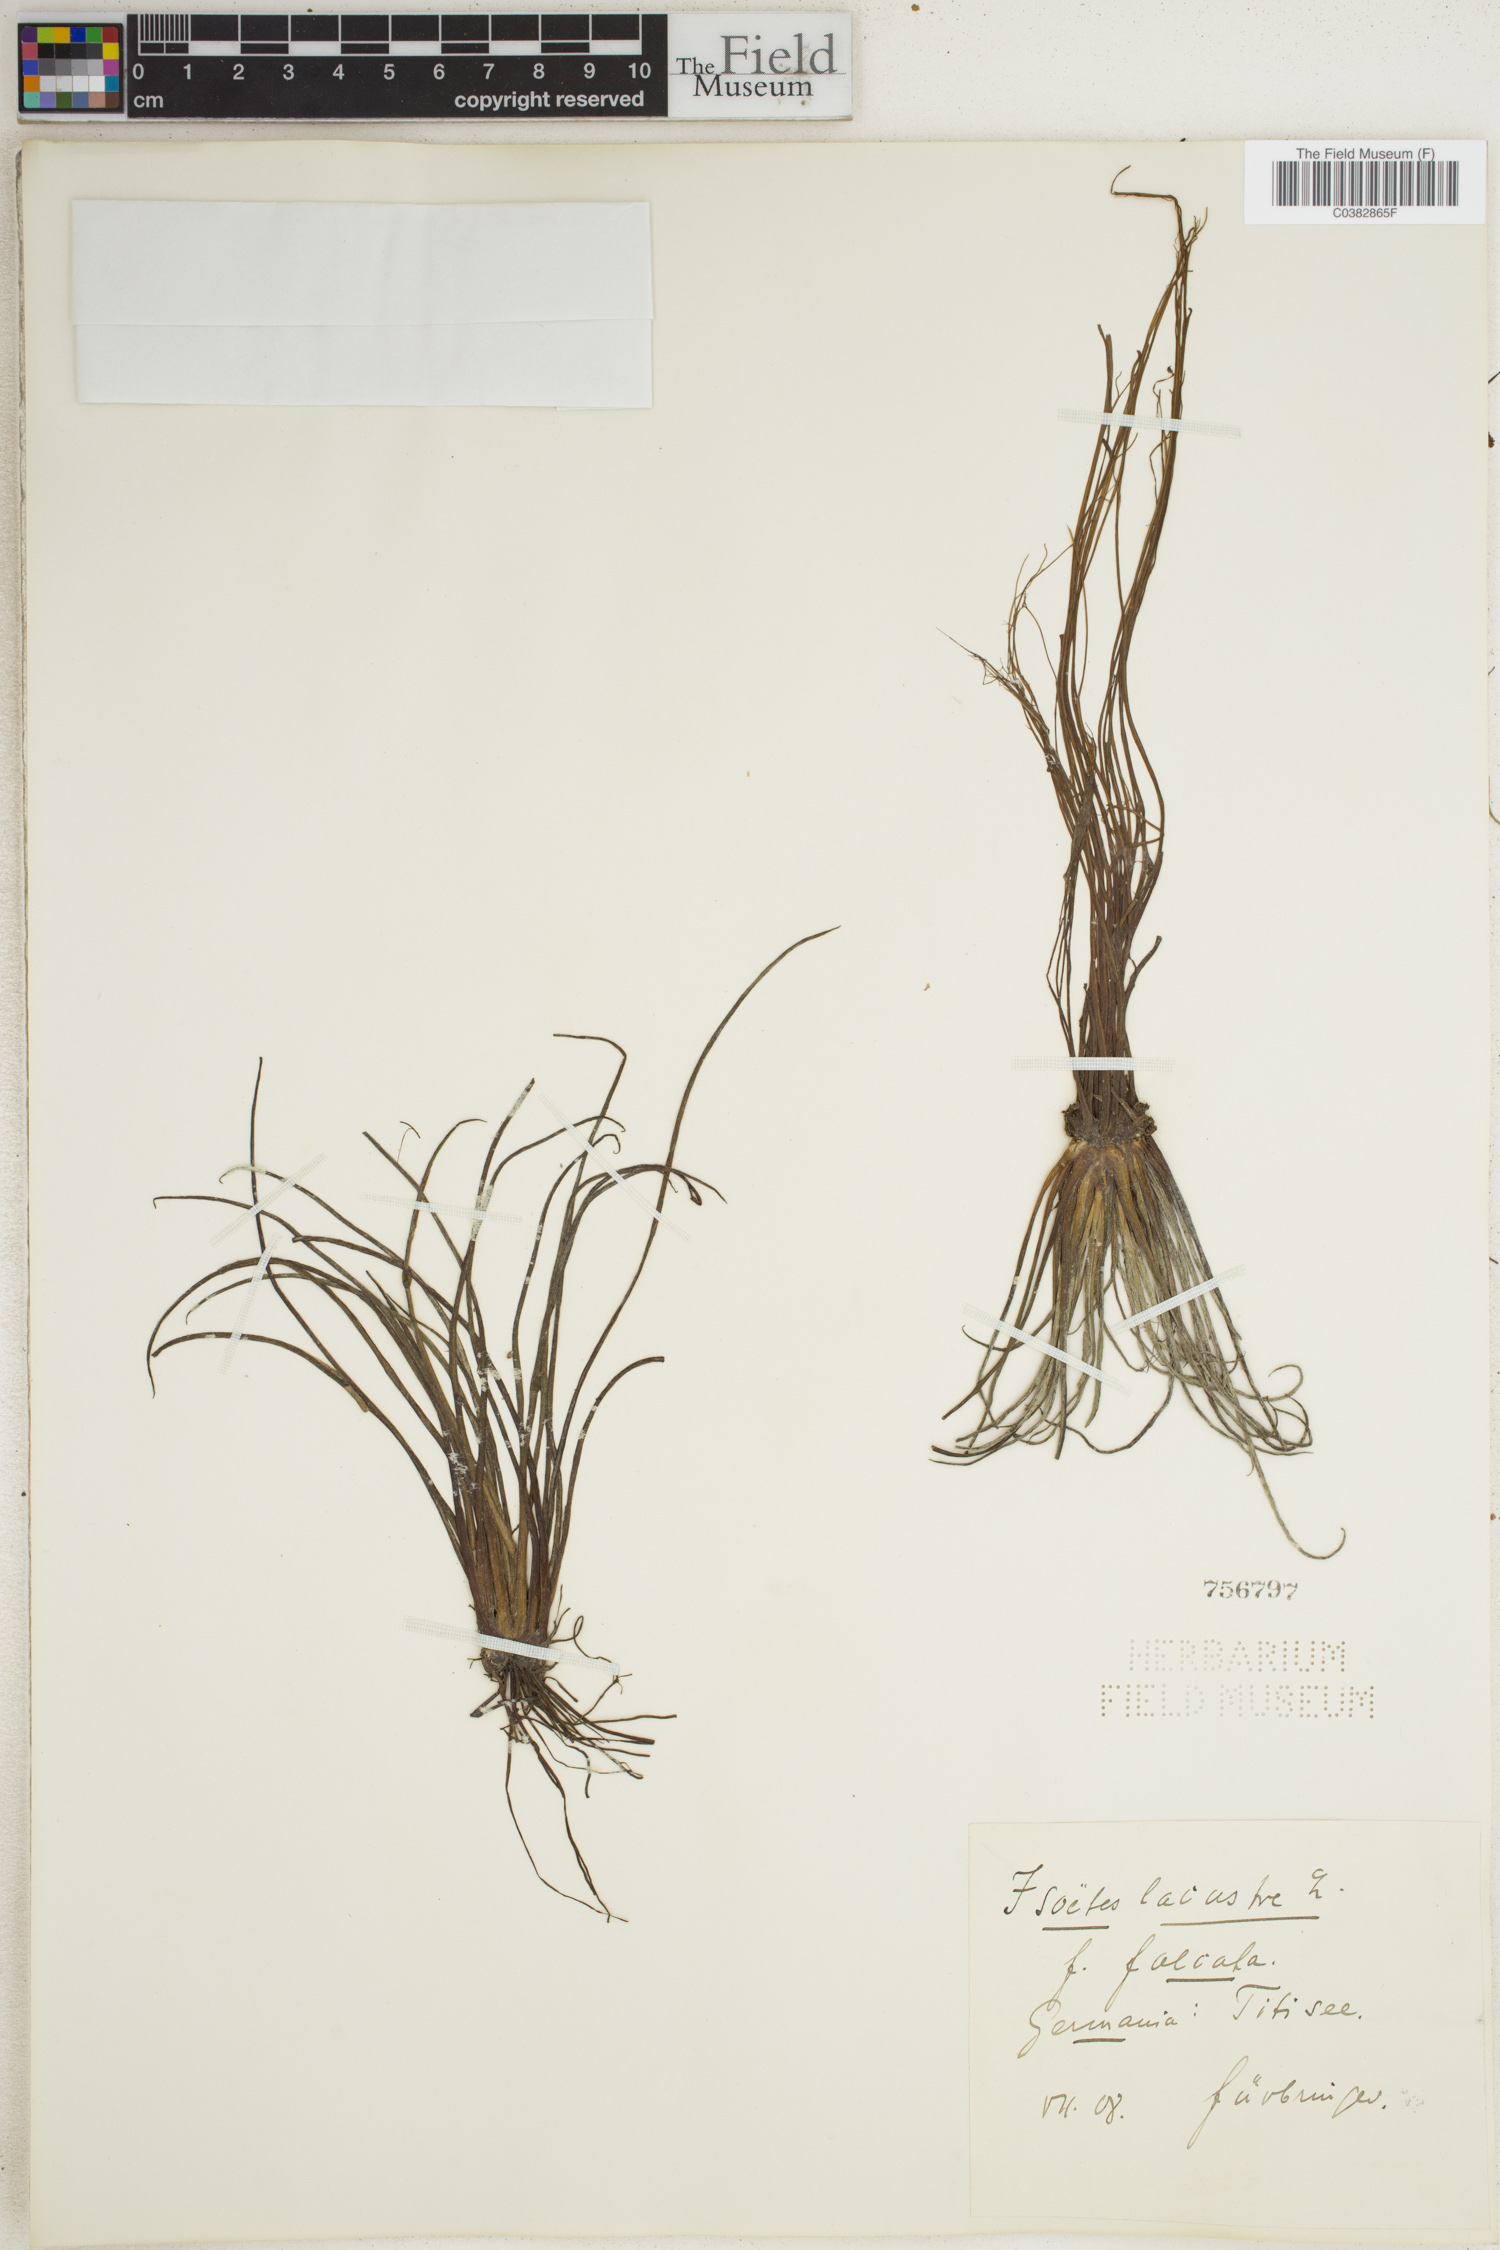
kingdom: Plantae
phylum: Tracheophyta
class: Lycopodiopsida
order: Isoetales
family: Isoetaceae
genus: Isoetes
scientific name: Isoetes lacustris
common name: Common quillwort
